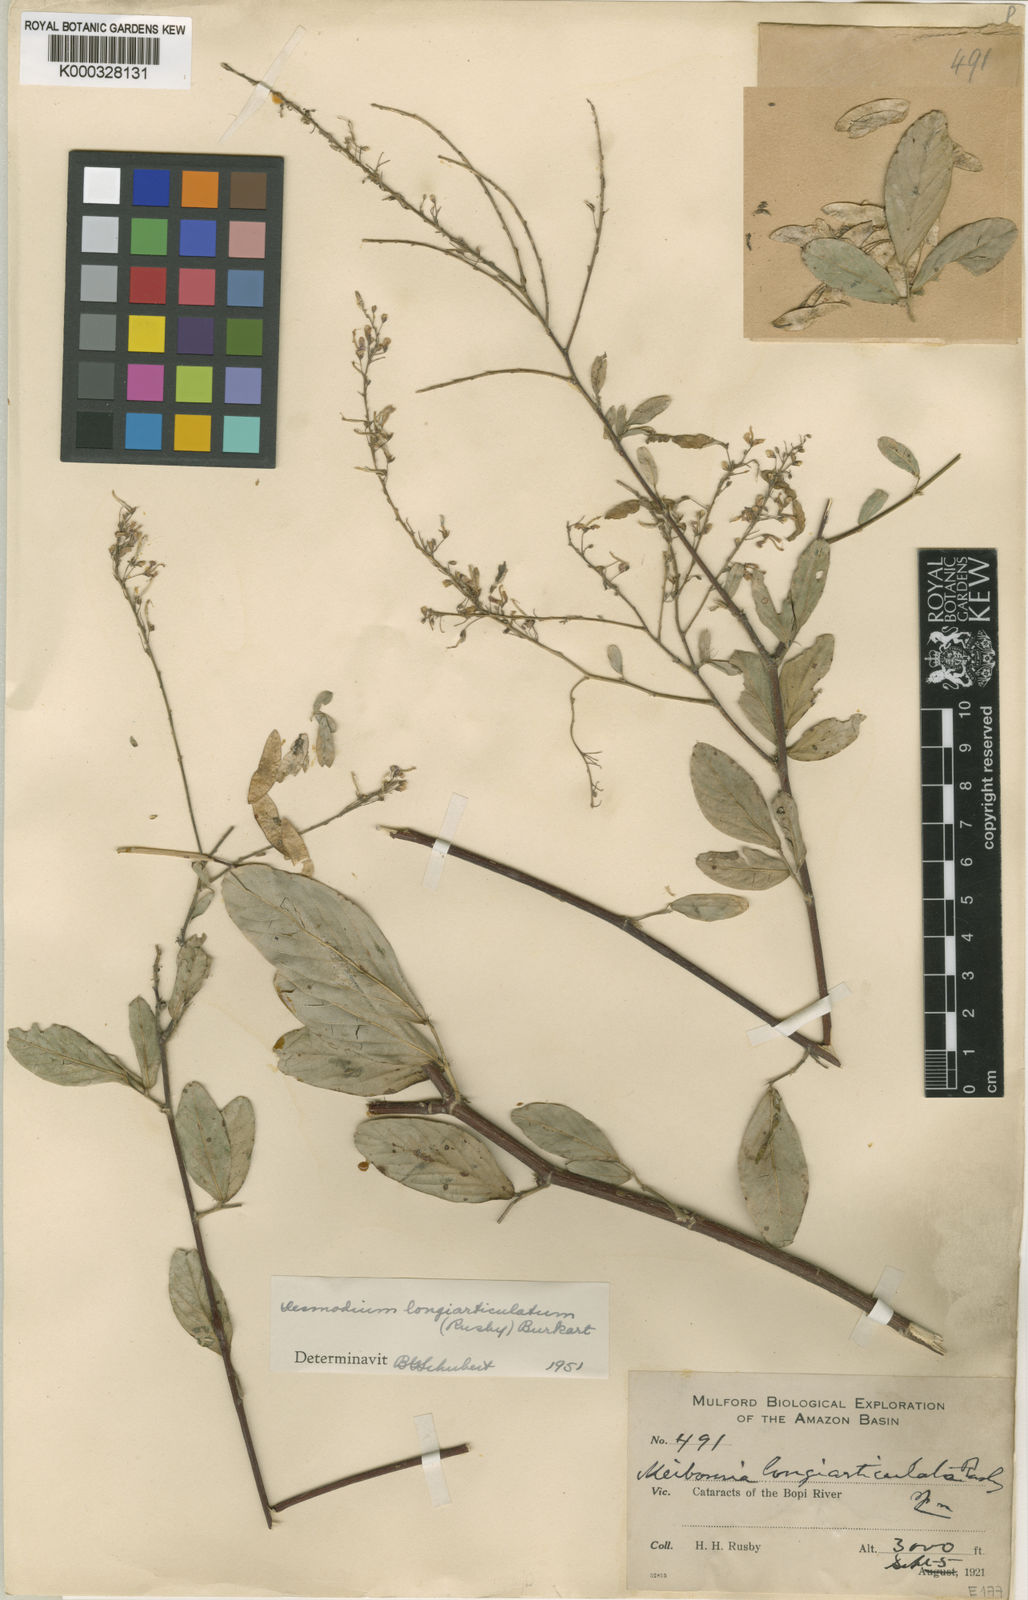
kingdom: Plantae
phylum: Tracheophyta
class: Magnoliopsida
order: Fabales
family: Fabaceae
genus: Desmodium
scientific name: Desmodium longiarticulatum
